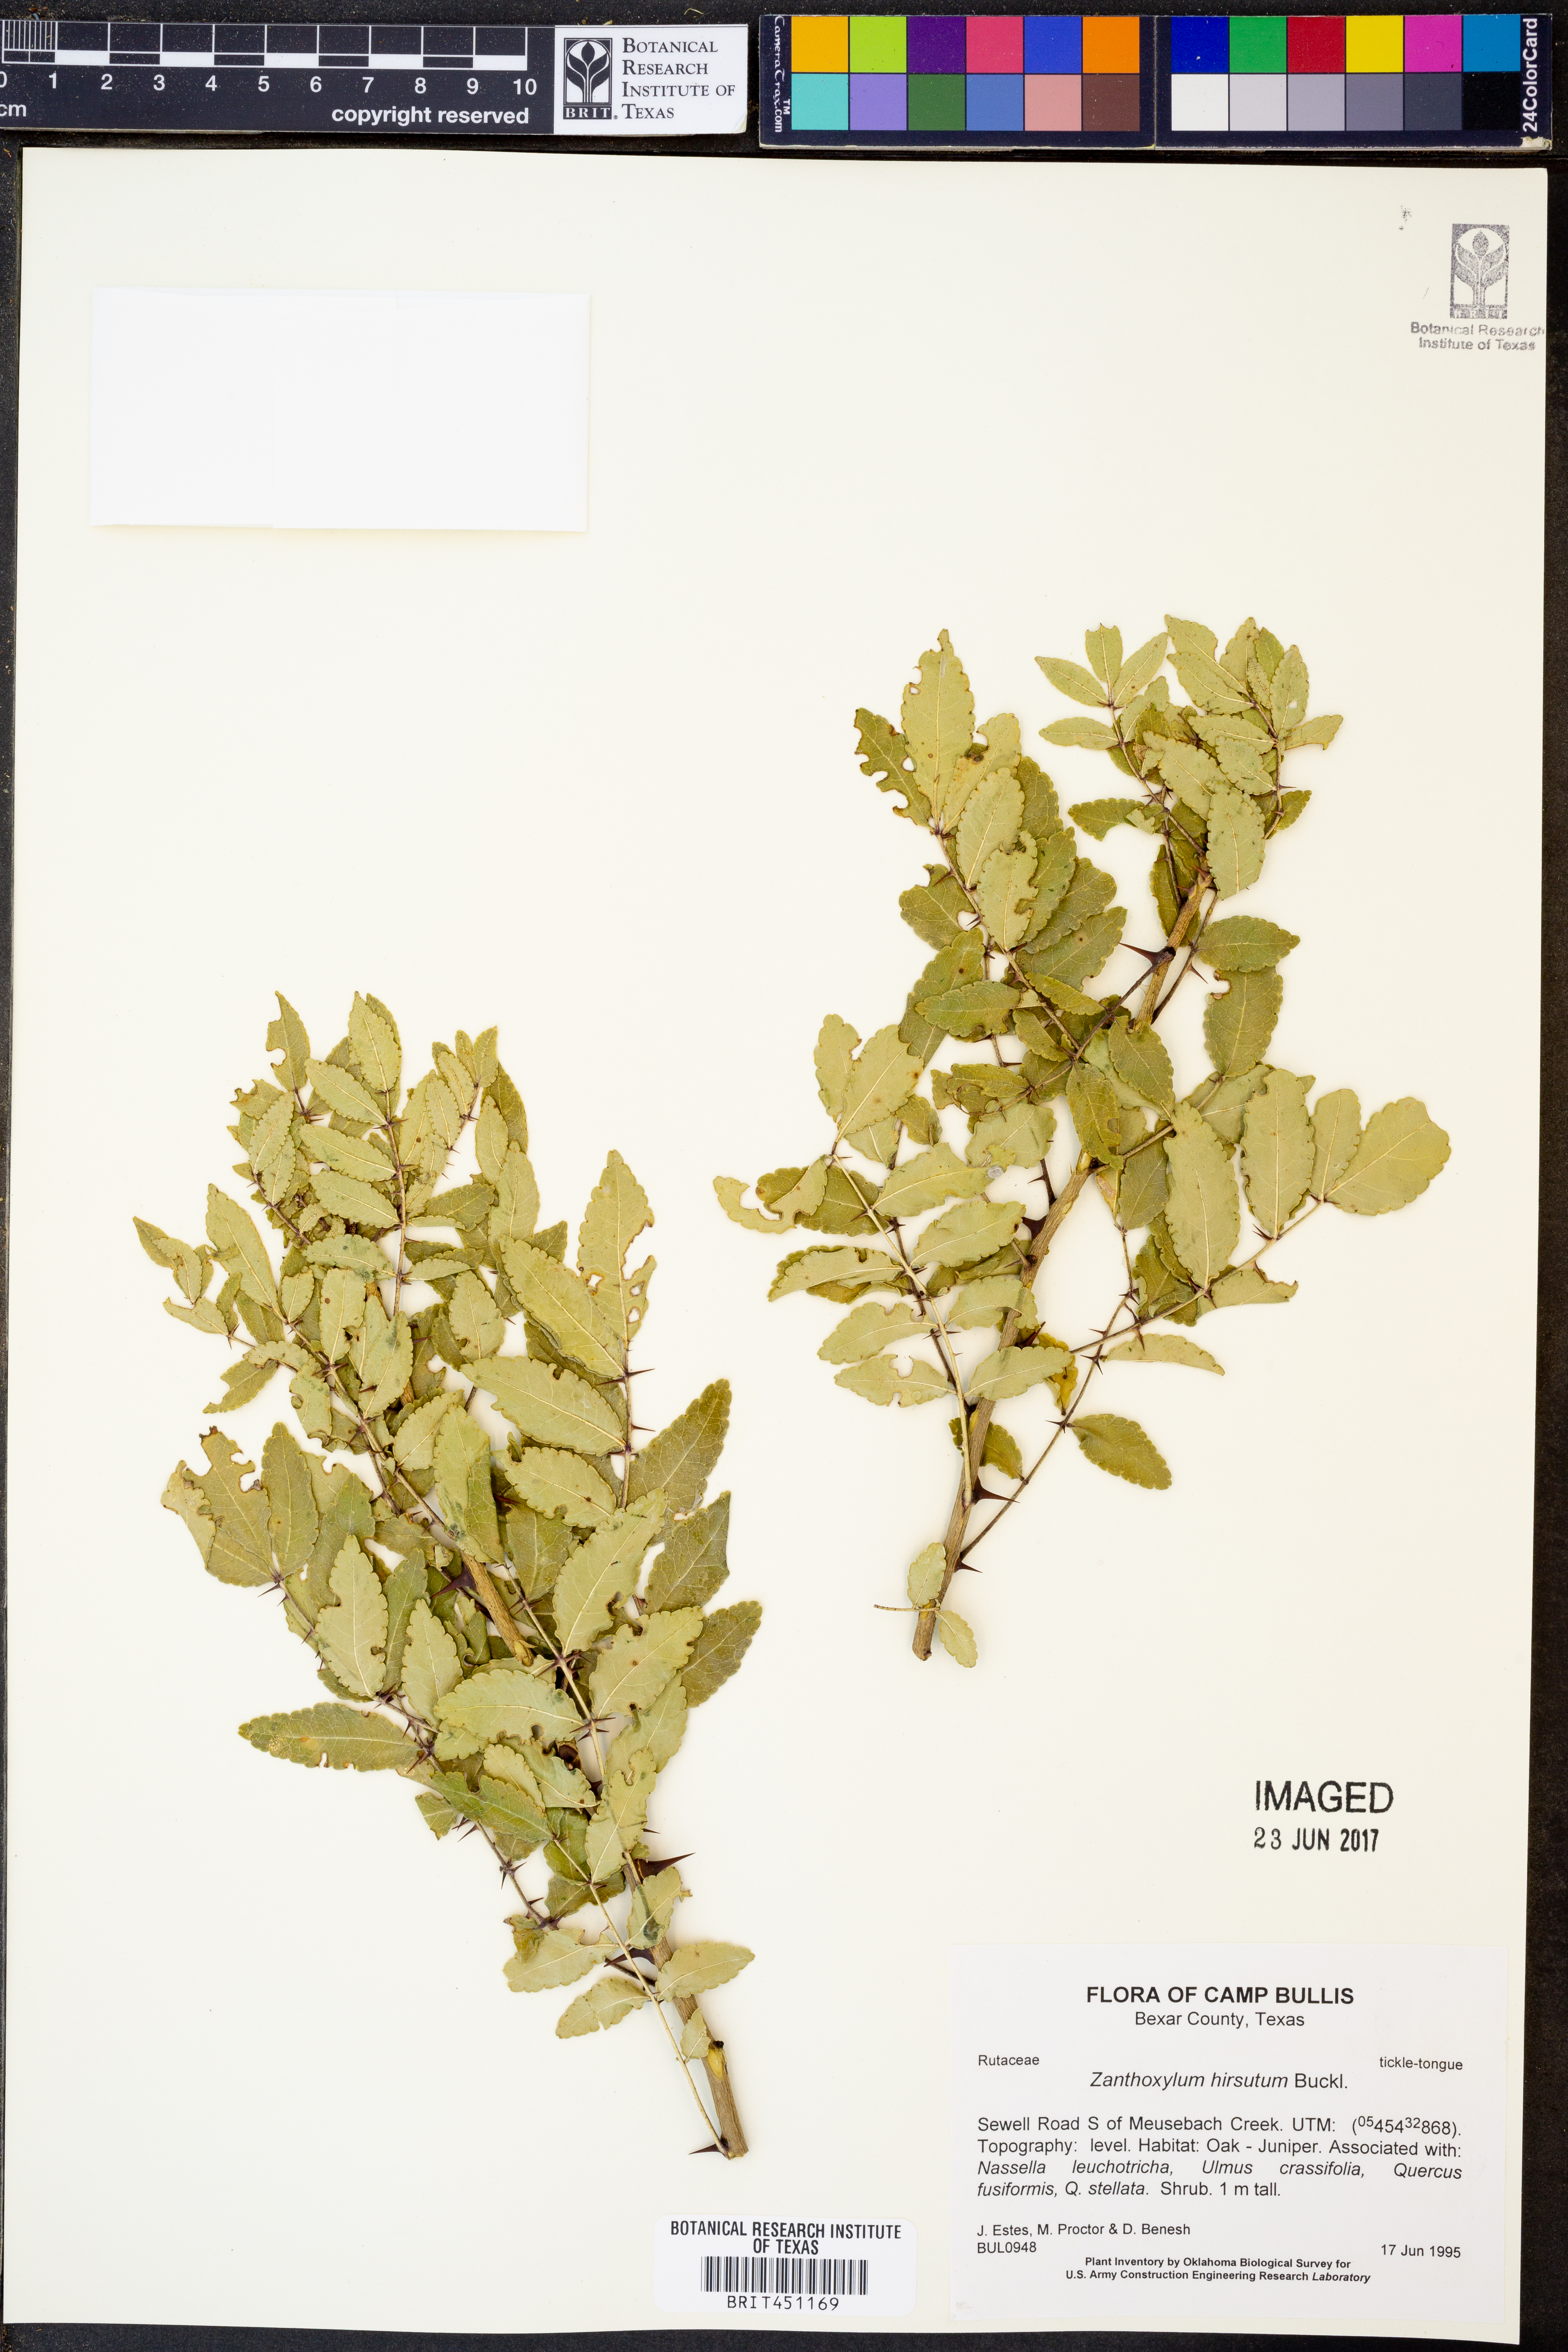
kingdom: Plantae
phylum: Tracheophyta
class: Magnoliopsida
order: Sapindales
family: Rutaceae
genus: Zanthoxylum
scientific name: Zanthoxylum clava-herculis
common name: Hercules'-club
